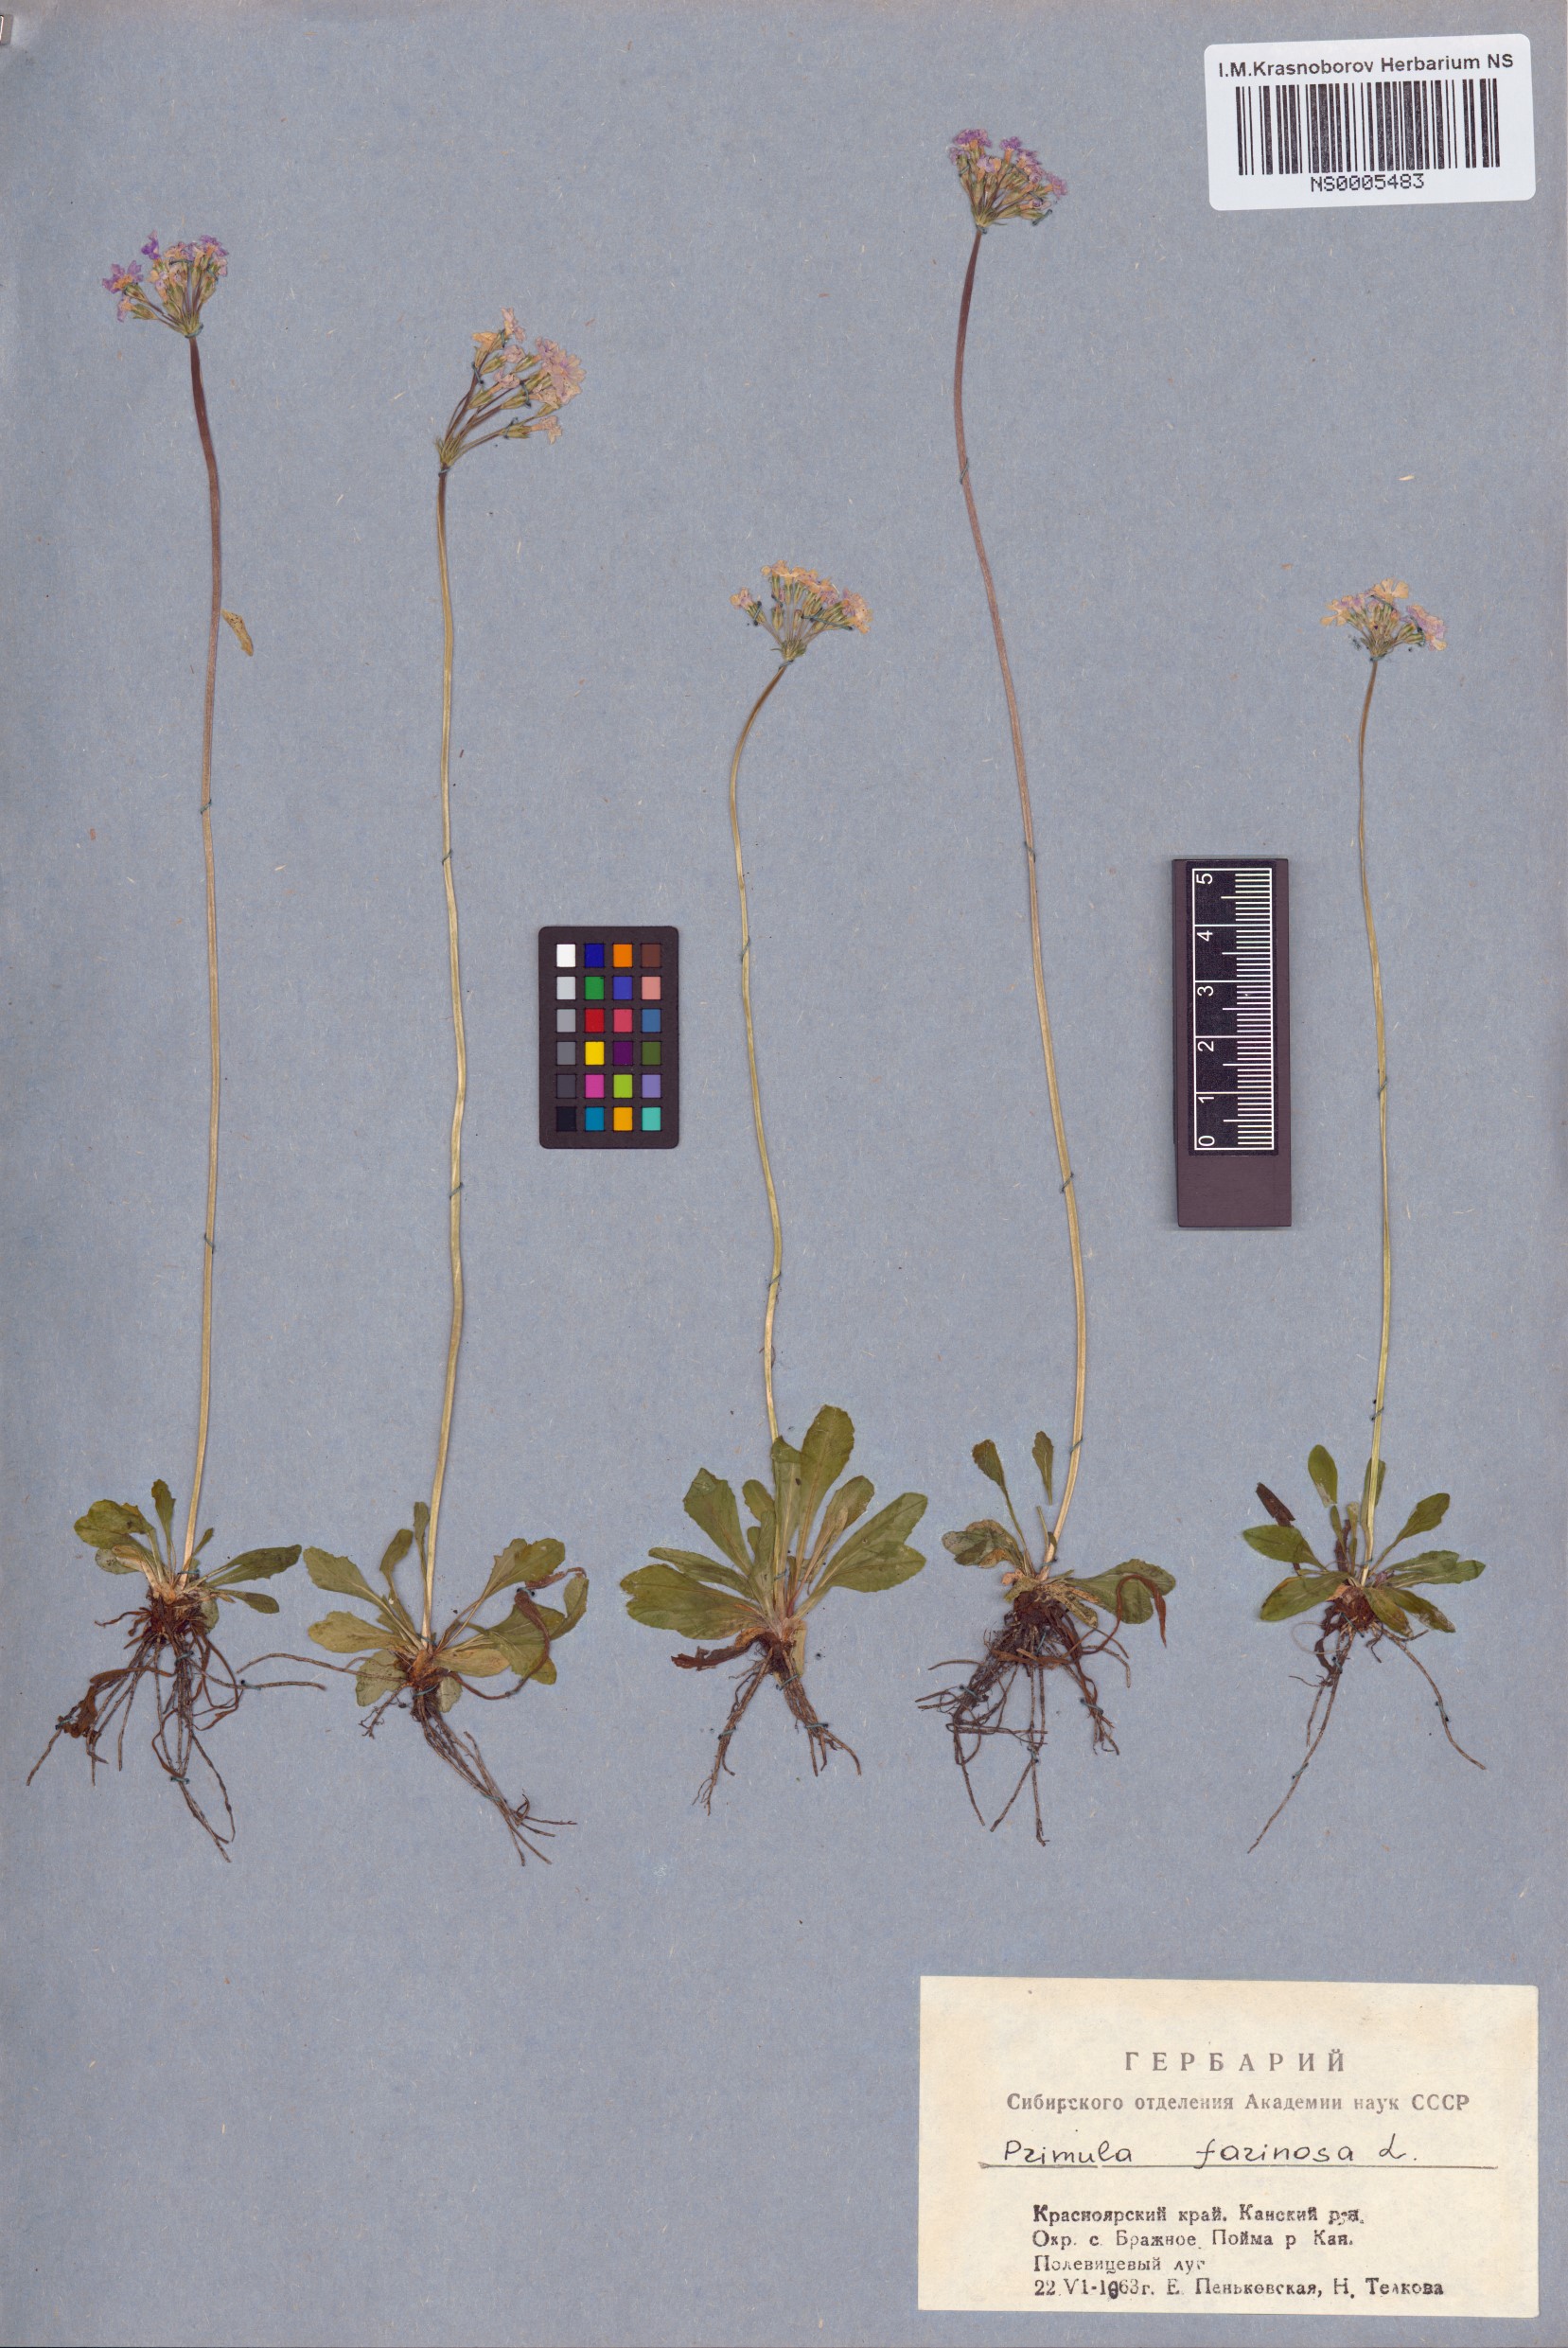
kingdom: Plantae
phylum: Tracheophyta
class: Magnoliopsida
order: Ericales
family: Primulaceae
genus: Primula
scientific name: Primula farinosa
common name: Bird's-eye primrose
